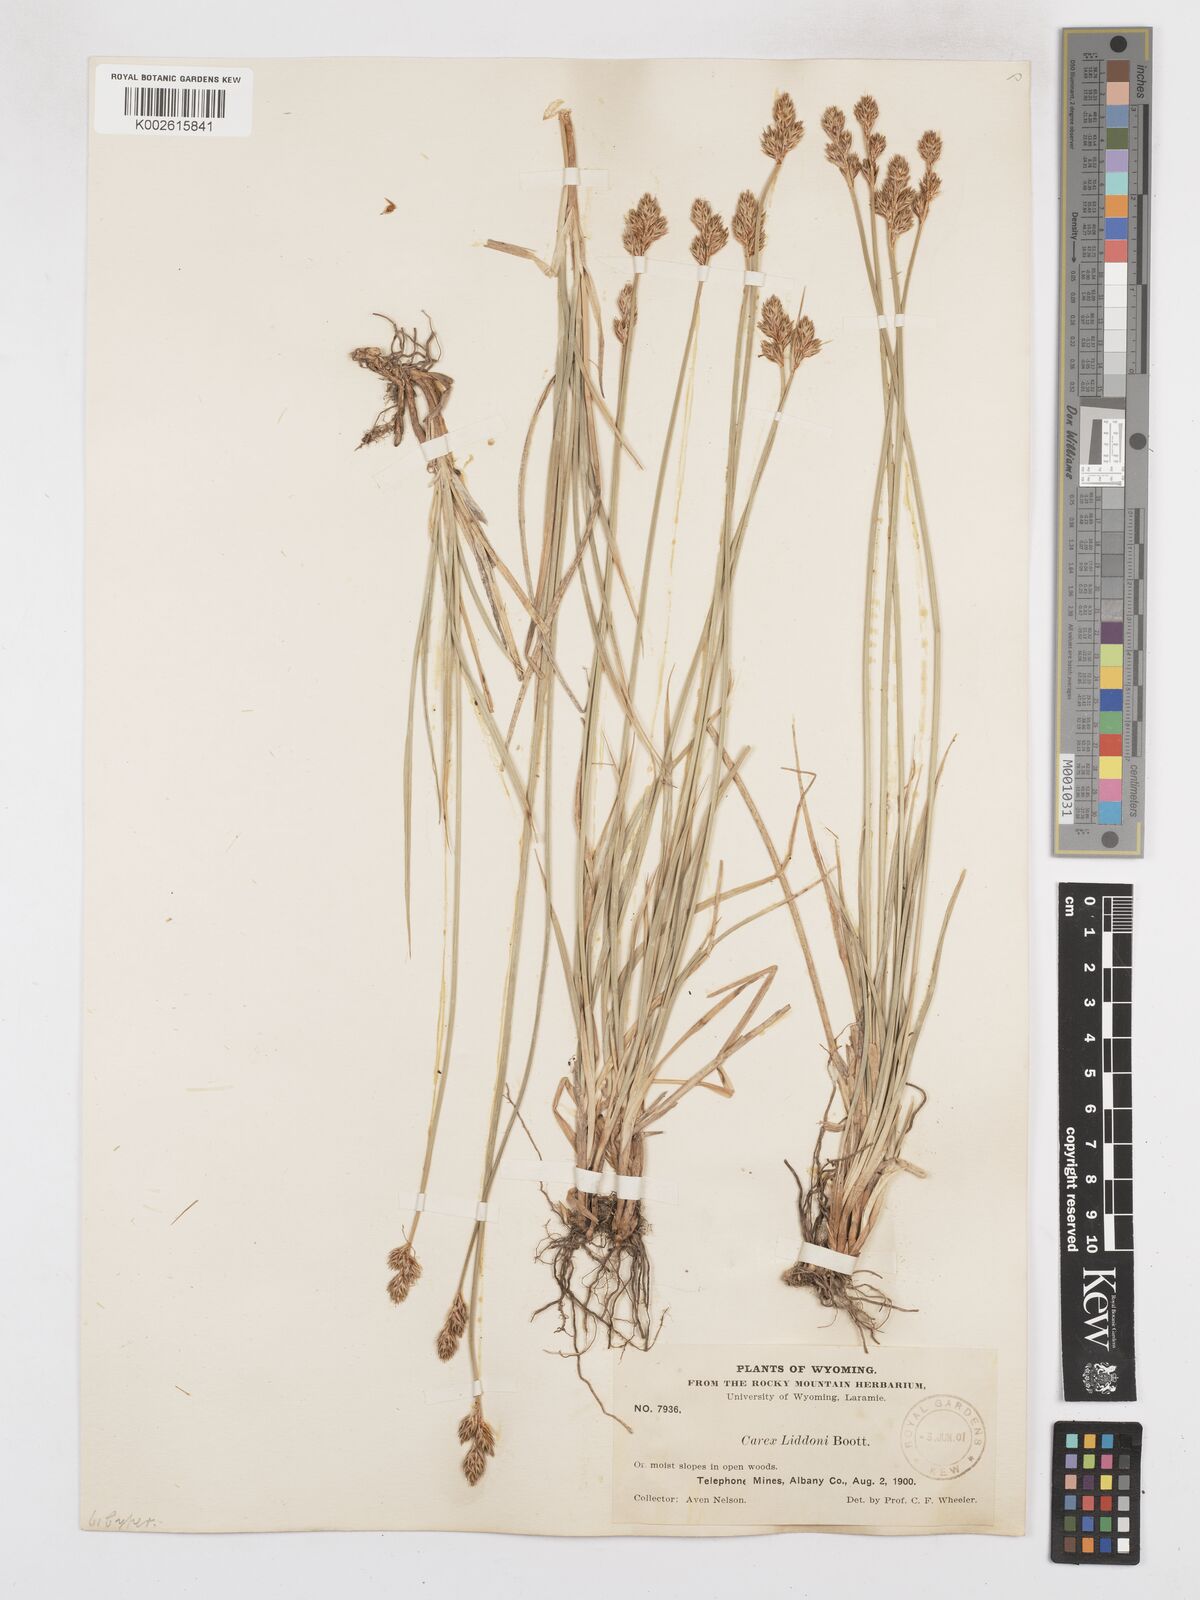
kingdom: Plantae
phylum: Tracheophyta
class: Liliopsida
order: Poales
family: Cyperaceae
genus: Carex
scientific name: Carex petasata
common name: Liddon's sedge
